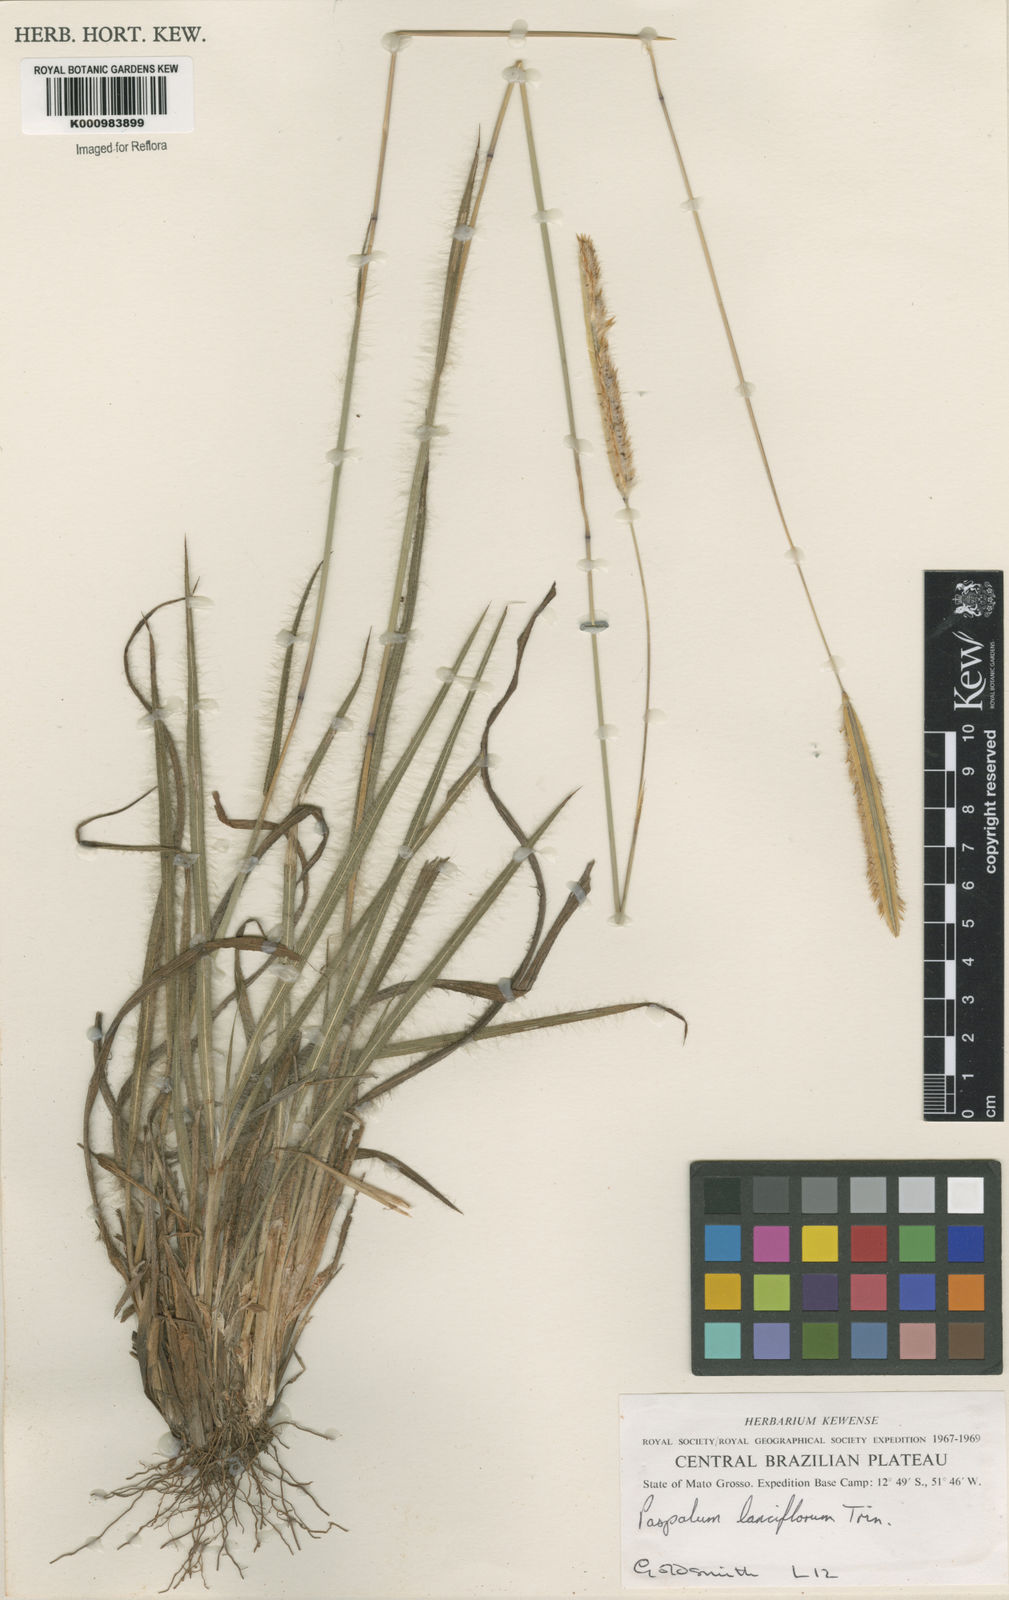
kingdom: Plantae
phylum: Tracheophyta
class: Liliopsida
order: Poales
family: Poaceae
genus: Paspalum
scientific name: Paspalum
